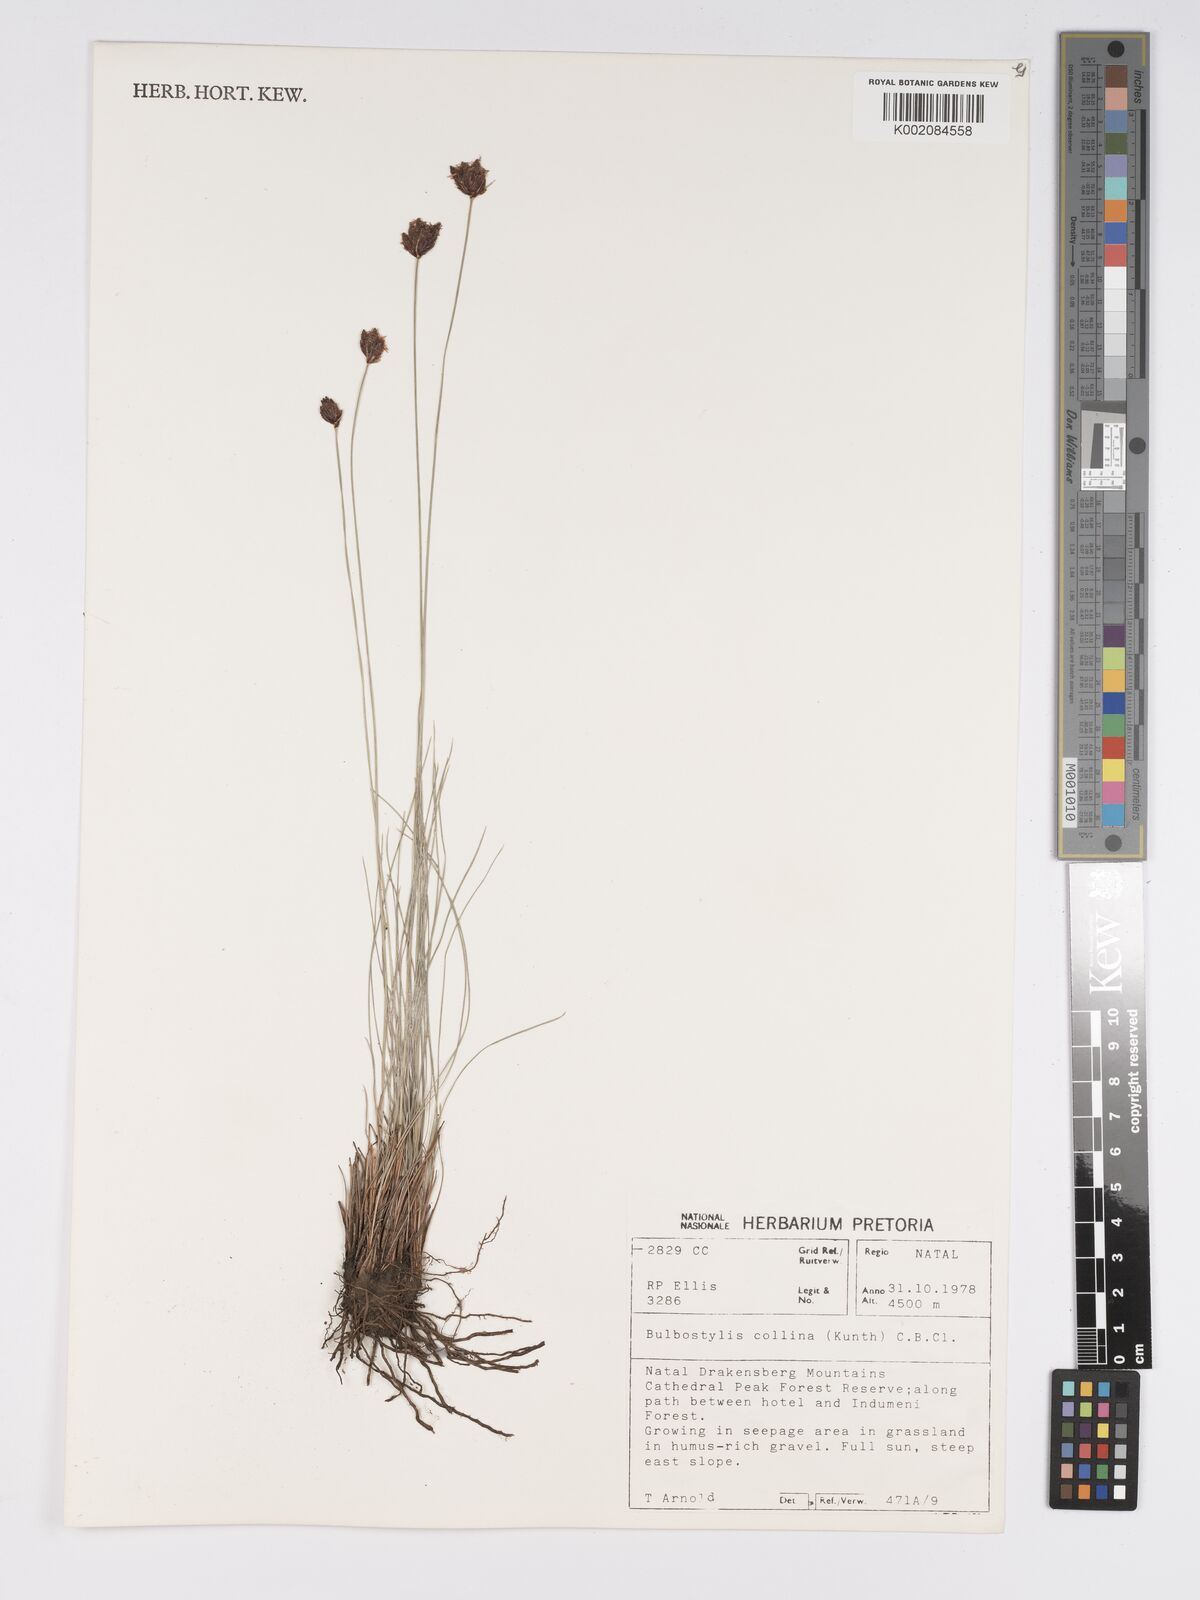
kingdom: Plantae
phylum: Tracheophyta
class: Liliopsida
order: Poales
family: Cyperaceae
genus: Bulbostylis
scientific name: Bulbostylis contexta
